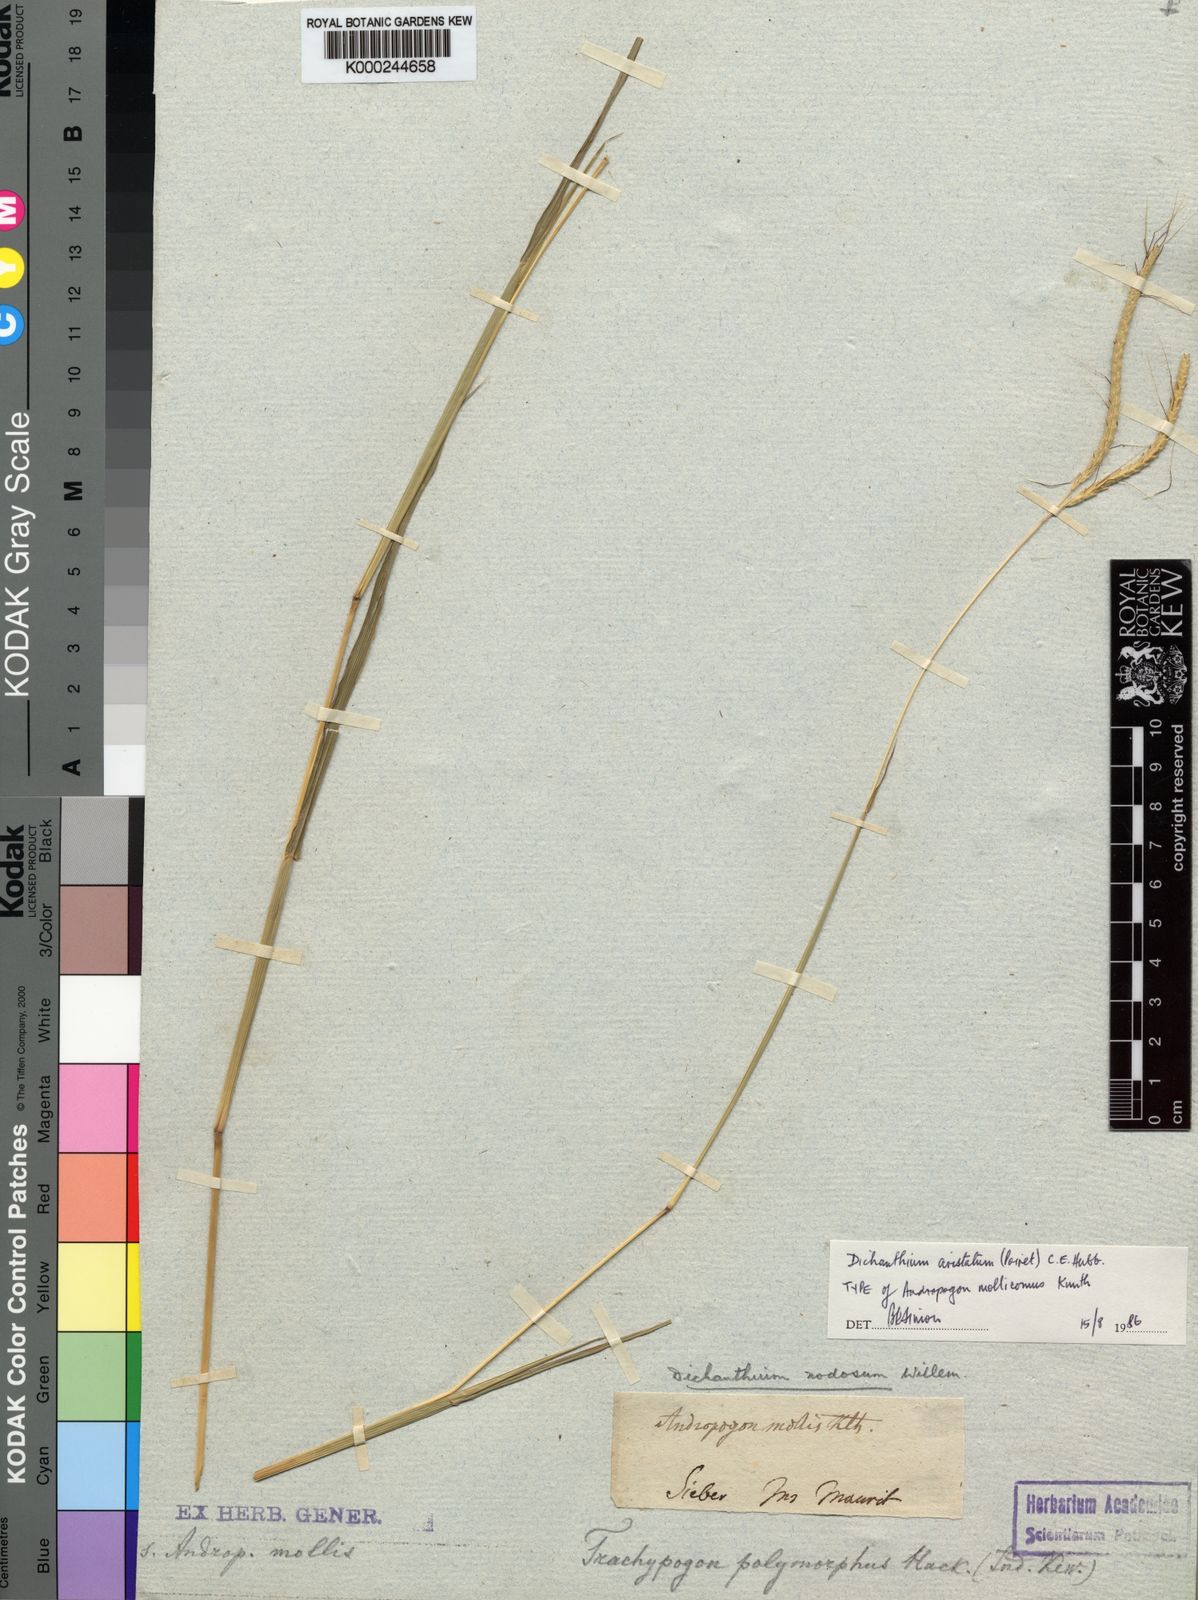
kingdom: Plantae
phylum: Tracheophyta
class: Liliopsida
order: Poales
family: Poaceae
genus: Dichanthium
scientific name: Dichanthium aristatum
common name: Angleton bluestem
